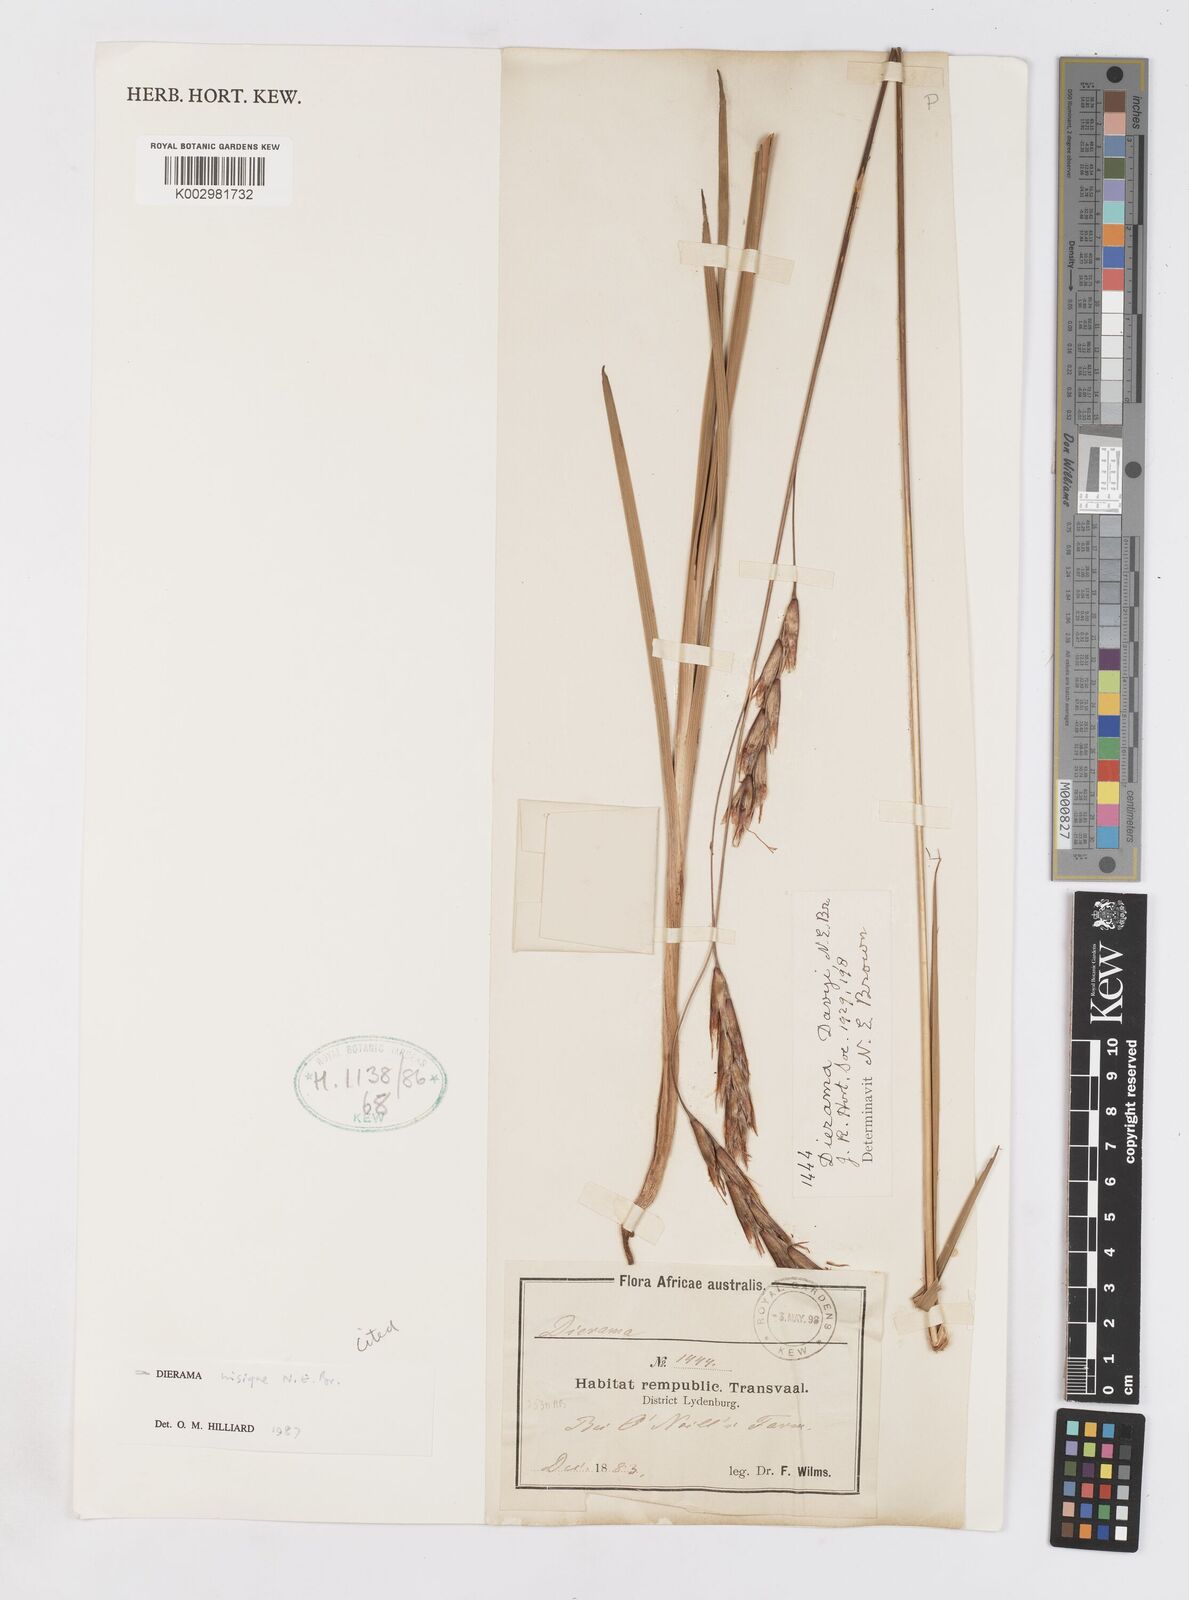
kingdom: Plantae
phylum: Tracheophyta
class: Liliopsida
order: Asparagales
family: Iridaceae
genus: Dierama
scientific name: Dierama insigne
